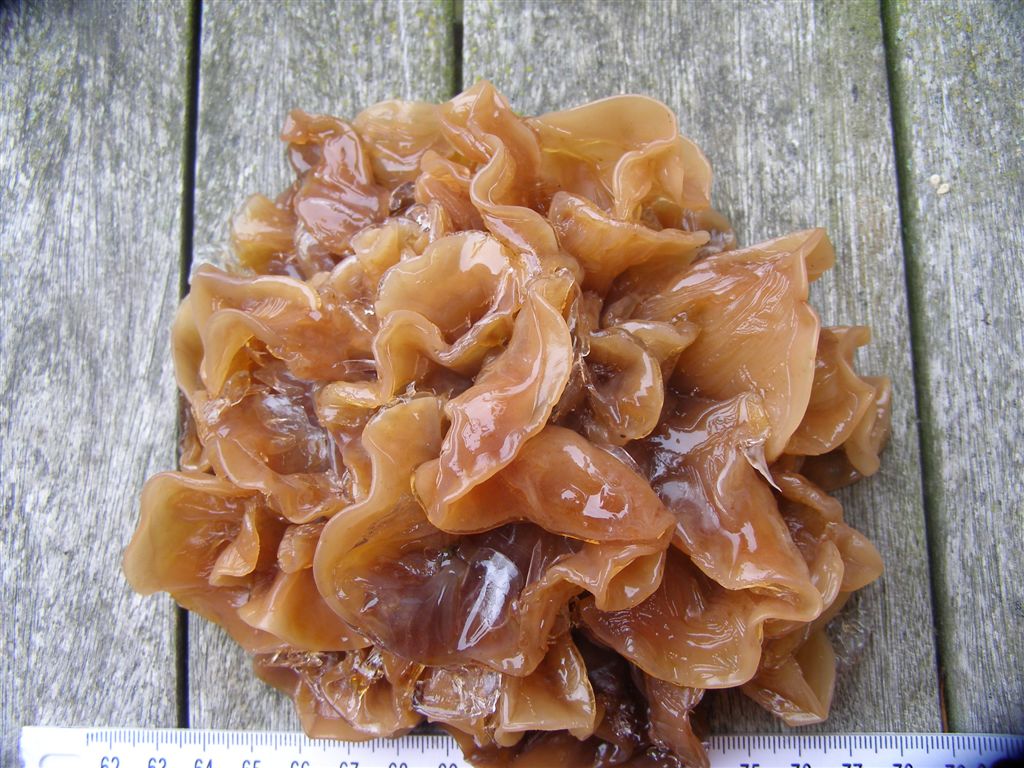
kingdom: Fungi
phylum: Basidiomycota
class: Tremellomycetes
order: Tremellales
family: Tremellaceae
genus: Phaeotremella
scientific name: Phaeotremella frondosa
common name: kæmpe-bævresvamp
